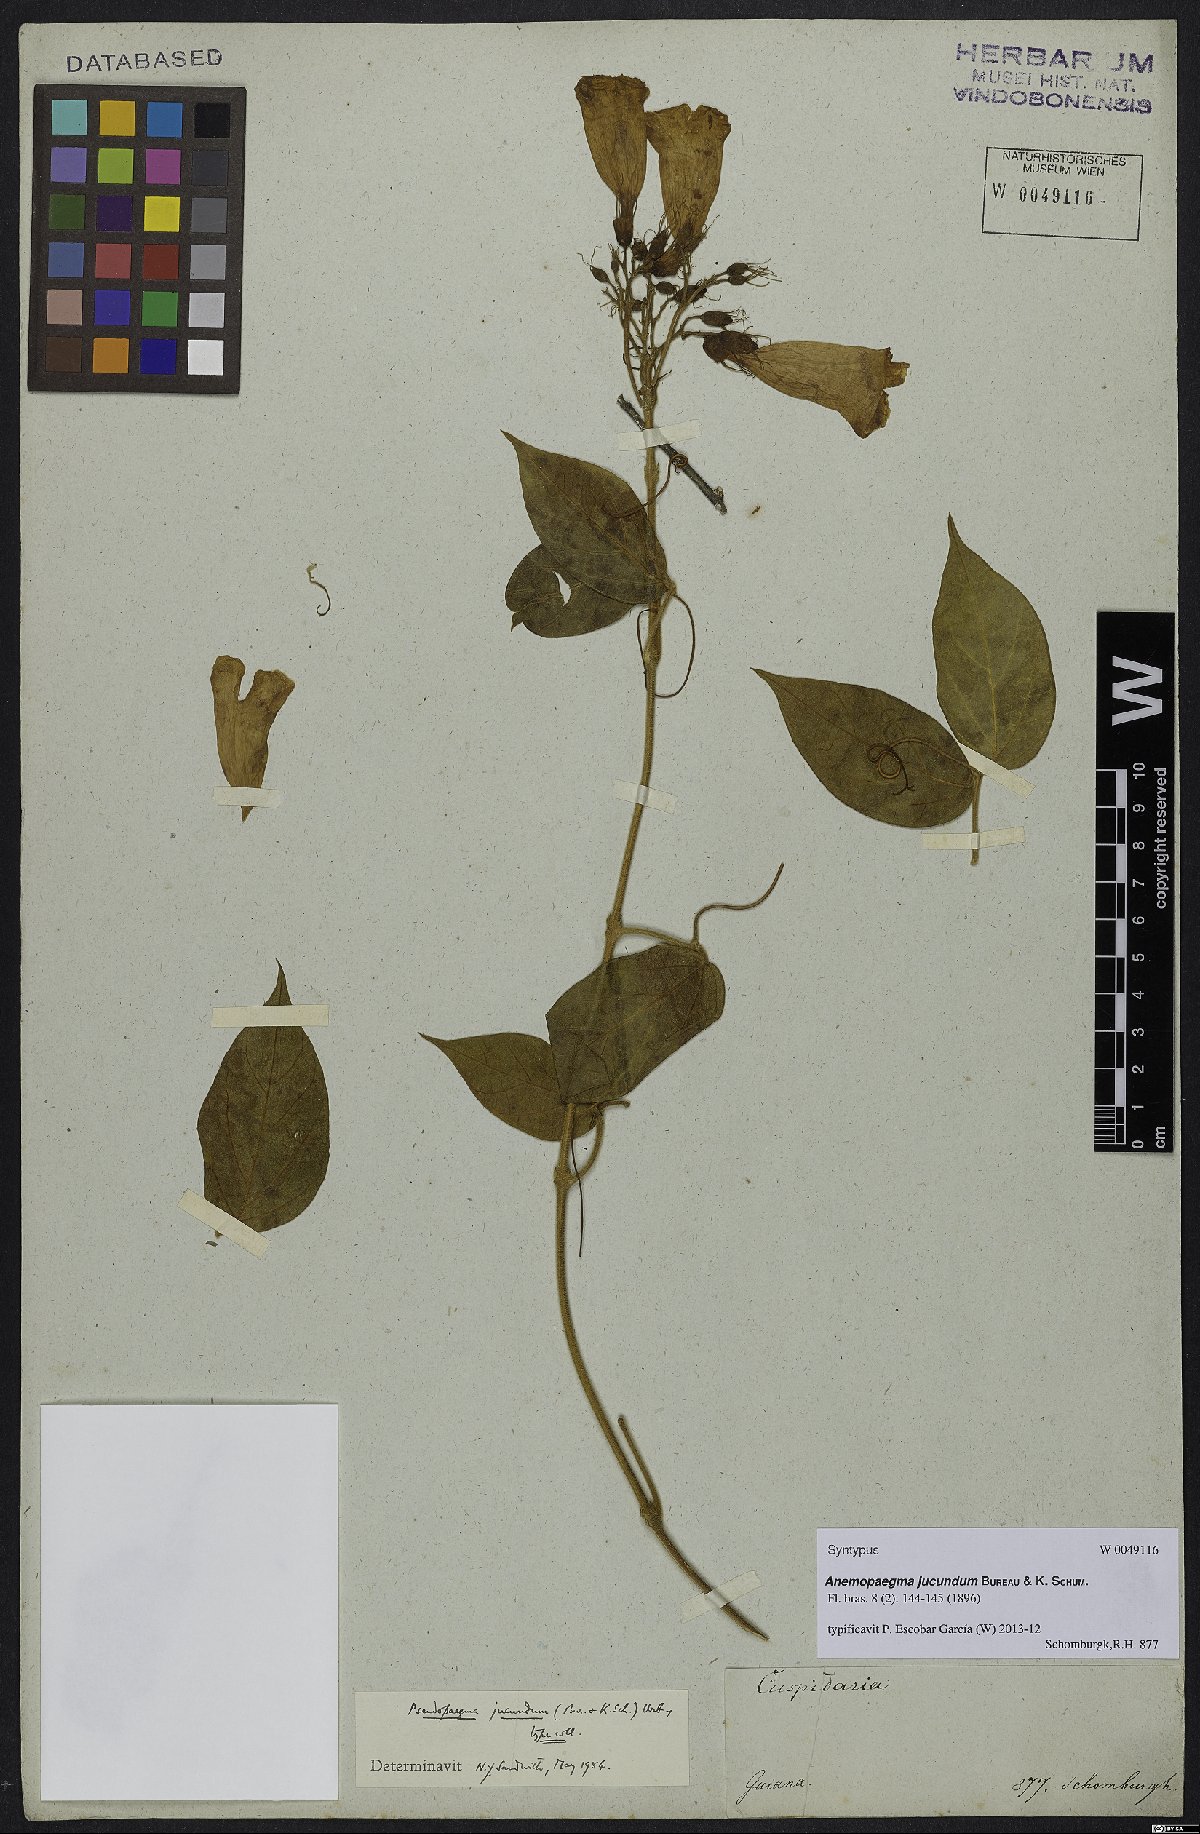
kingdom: Plantae
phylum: Tracheophyta
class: Magnoliopsida
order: Lamiales
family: Bignoniaceae
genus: Anemopaegma
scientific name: Anemopaegma jucundum
